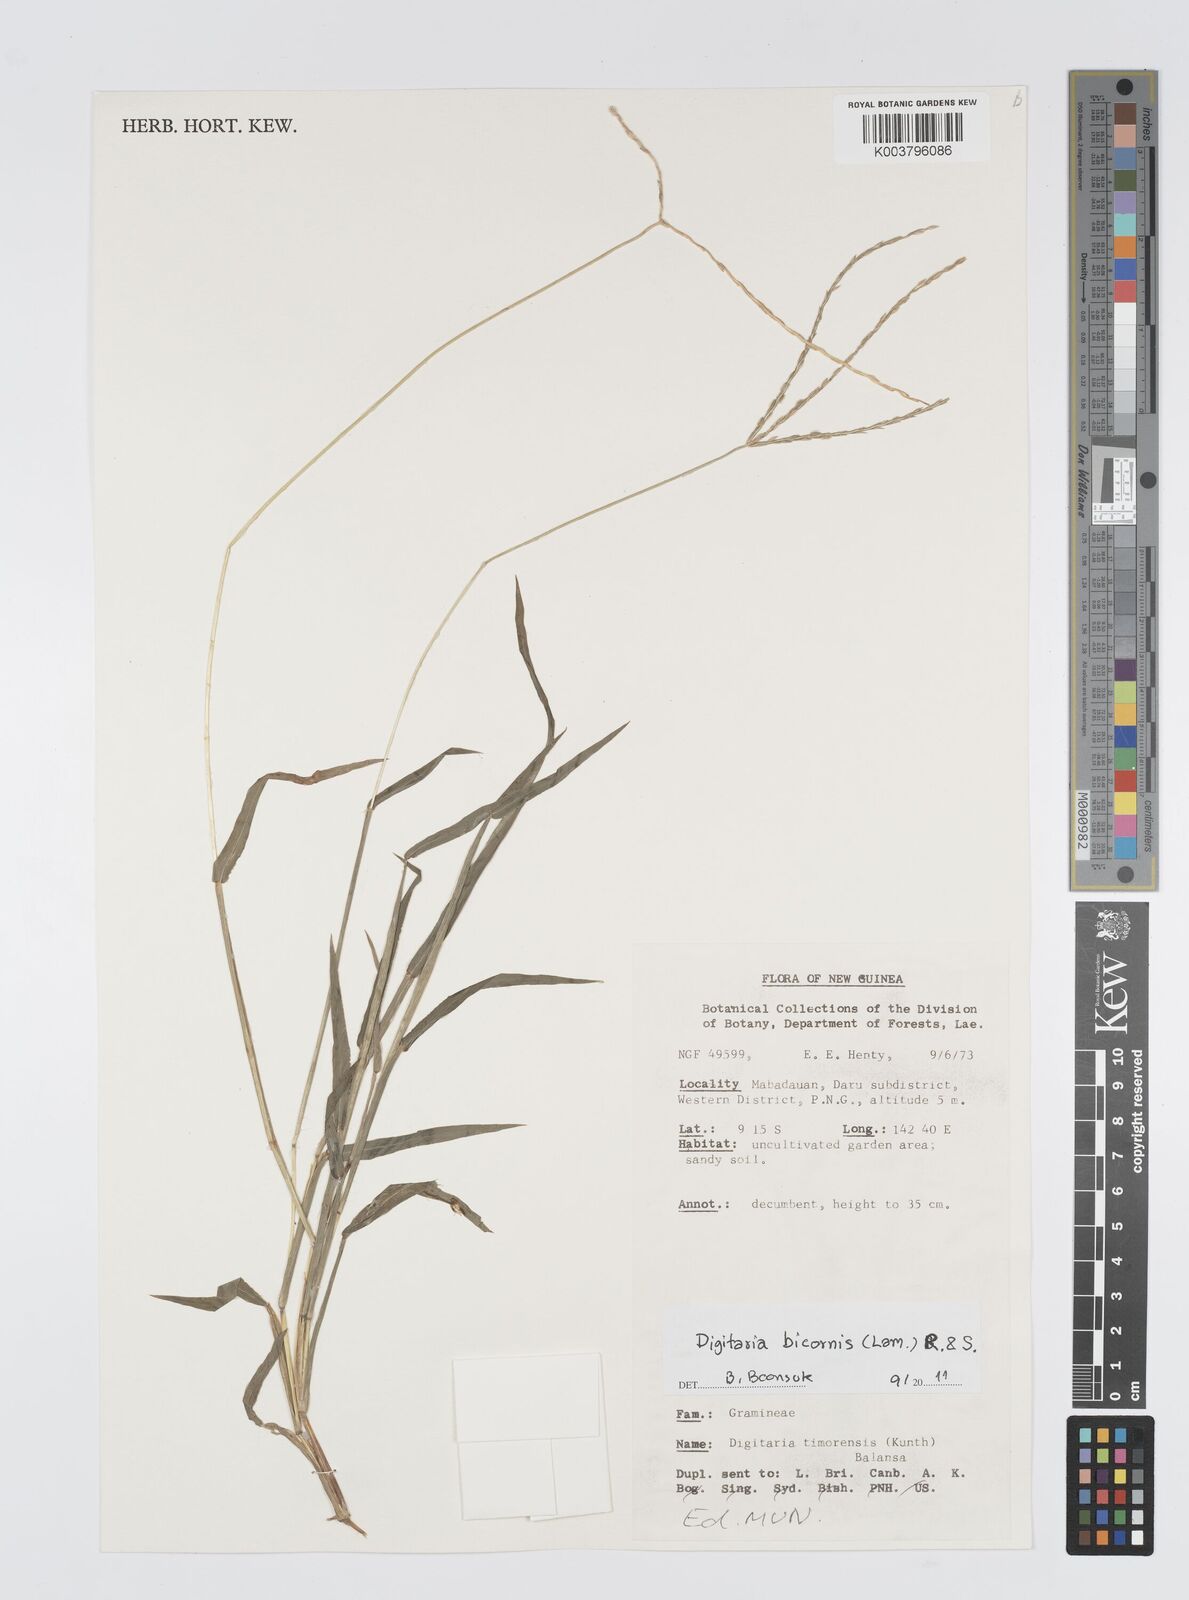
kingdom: Plantae
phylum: Tracheophyta
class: Liliopsida
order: Poales
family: Poaceae
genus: Digitaria
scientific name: Digitaria bicornis
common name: Asian crabgrass
